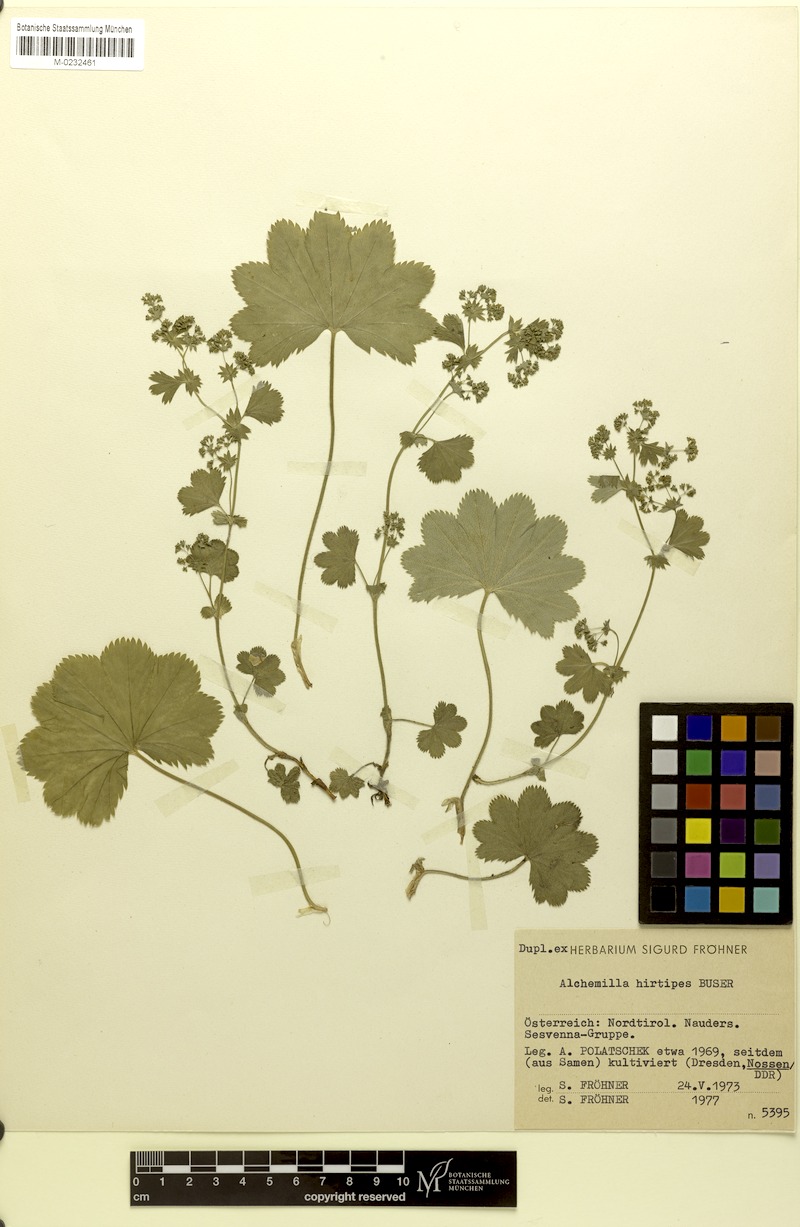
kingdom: Plantae
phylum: Tracheophyta
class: Magnoliopsida
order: Rosales
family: Rosaceae
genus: Alchemilla
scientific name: Alchemilla hirtipes
